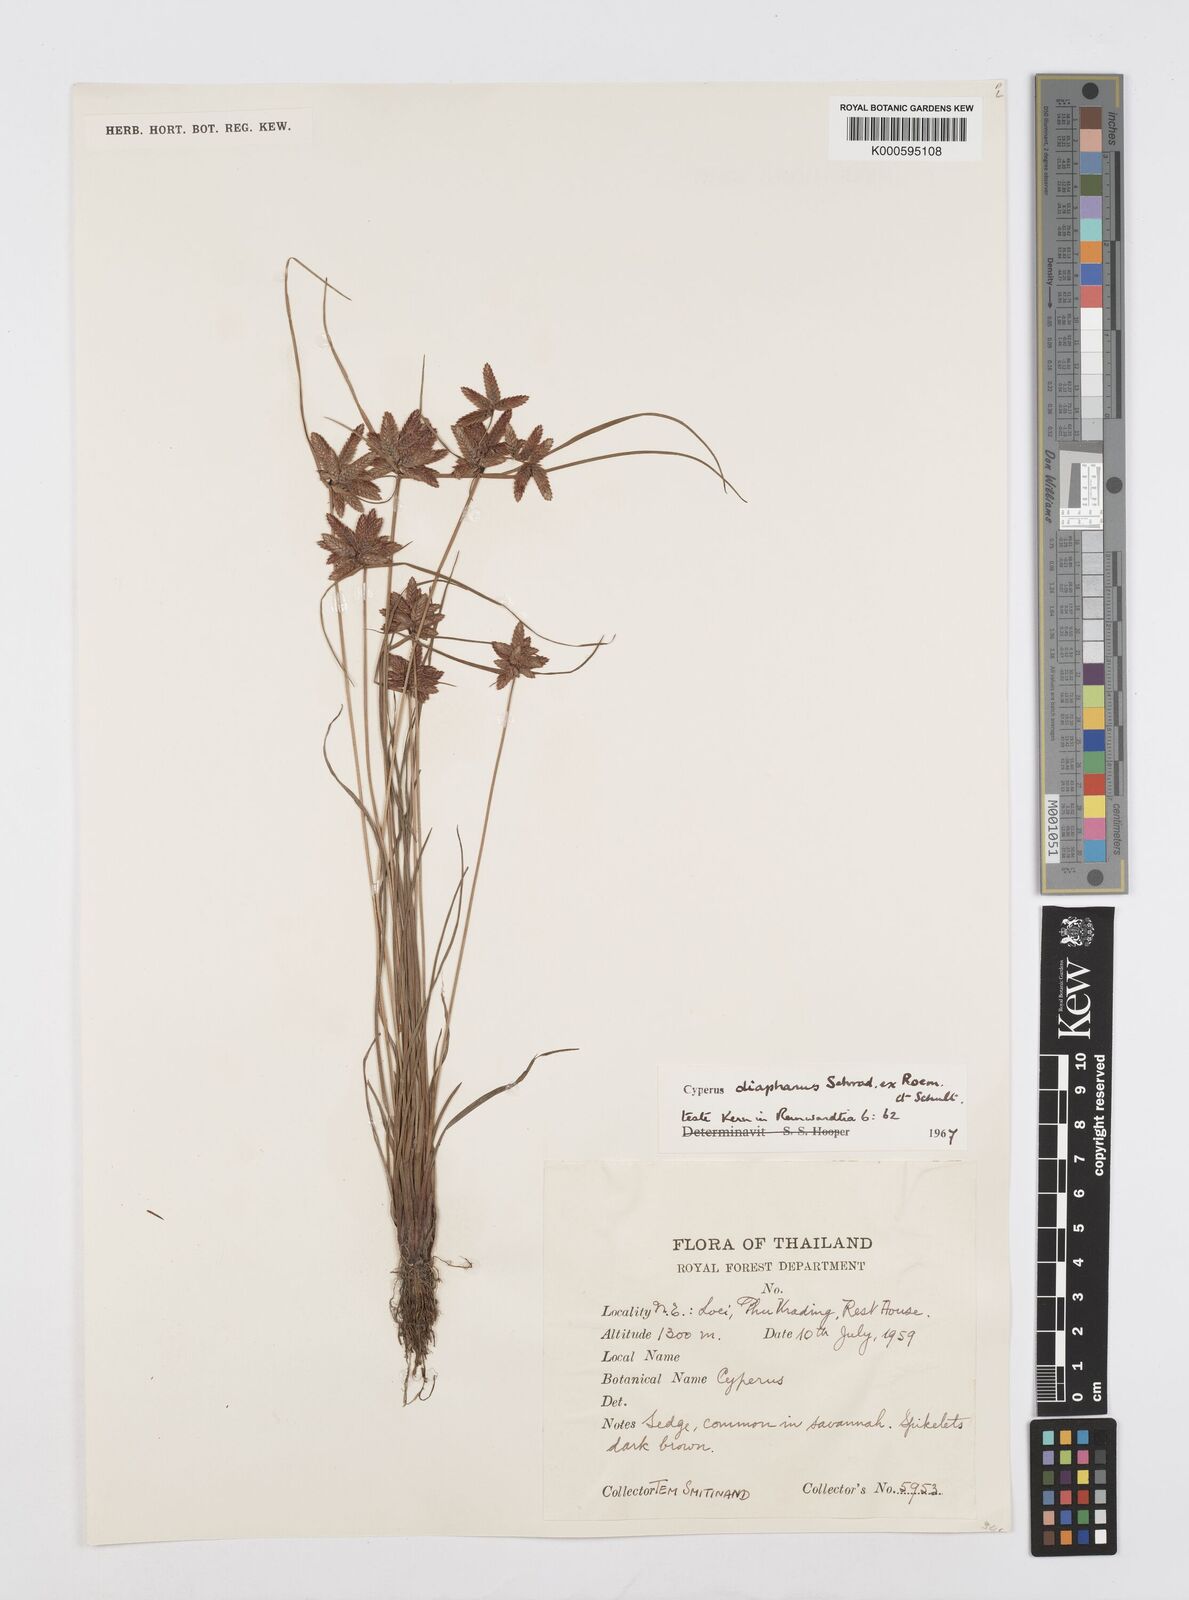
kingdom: Plantae
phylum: Tracheophyta
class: Liliopsida
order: Poales
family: Cyperaceae
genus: Cyperus
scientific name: Cyperus diaphanus
